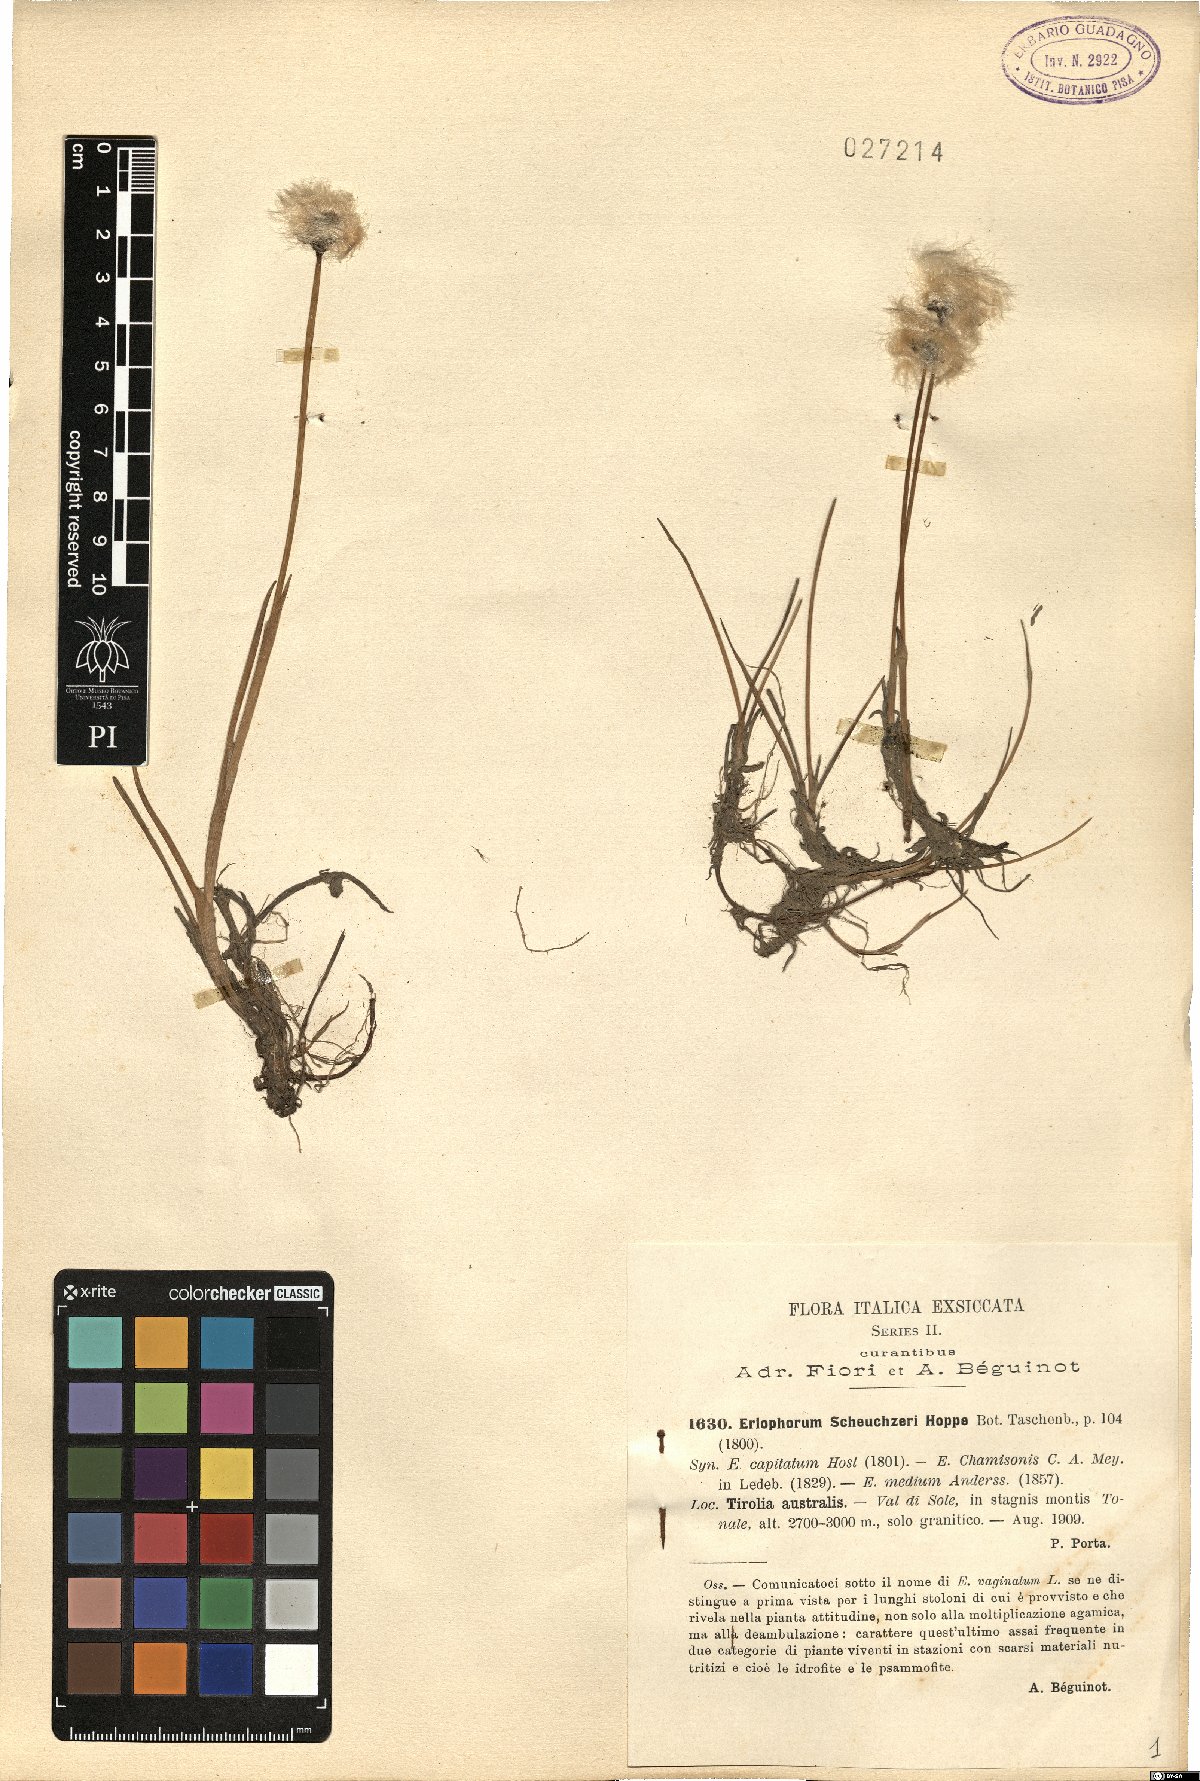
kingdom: Plantae
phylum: Tracheophyta
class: Liliopsida
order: Poales
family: Cyperaceae
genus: Eriophorum
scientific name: Eriophorum scheuchzeri
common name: Scheuchzer's cottongrass
